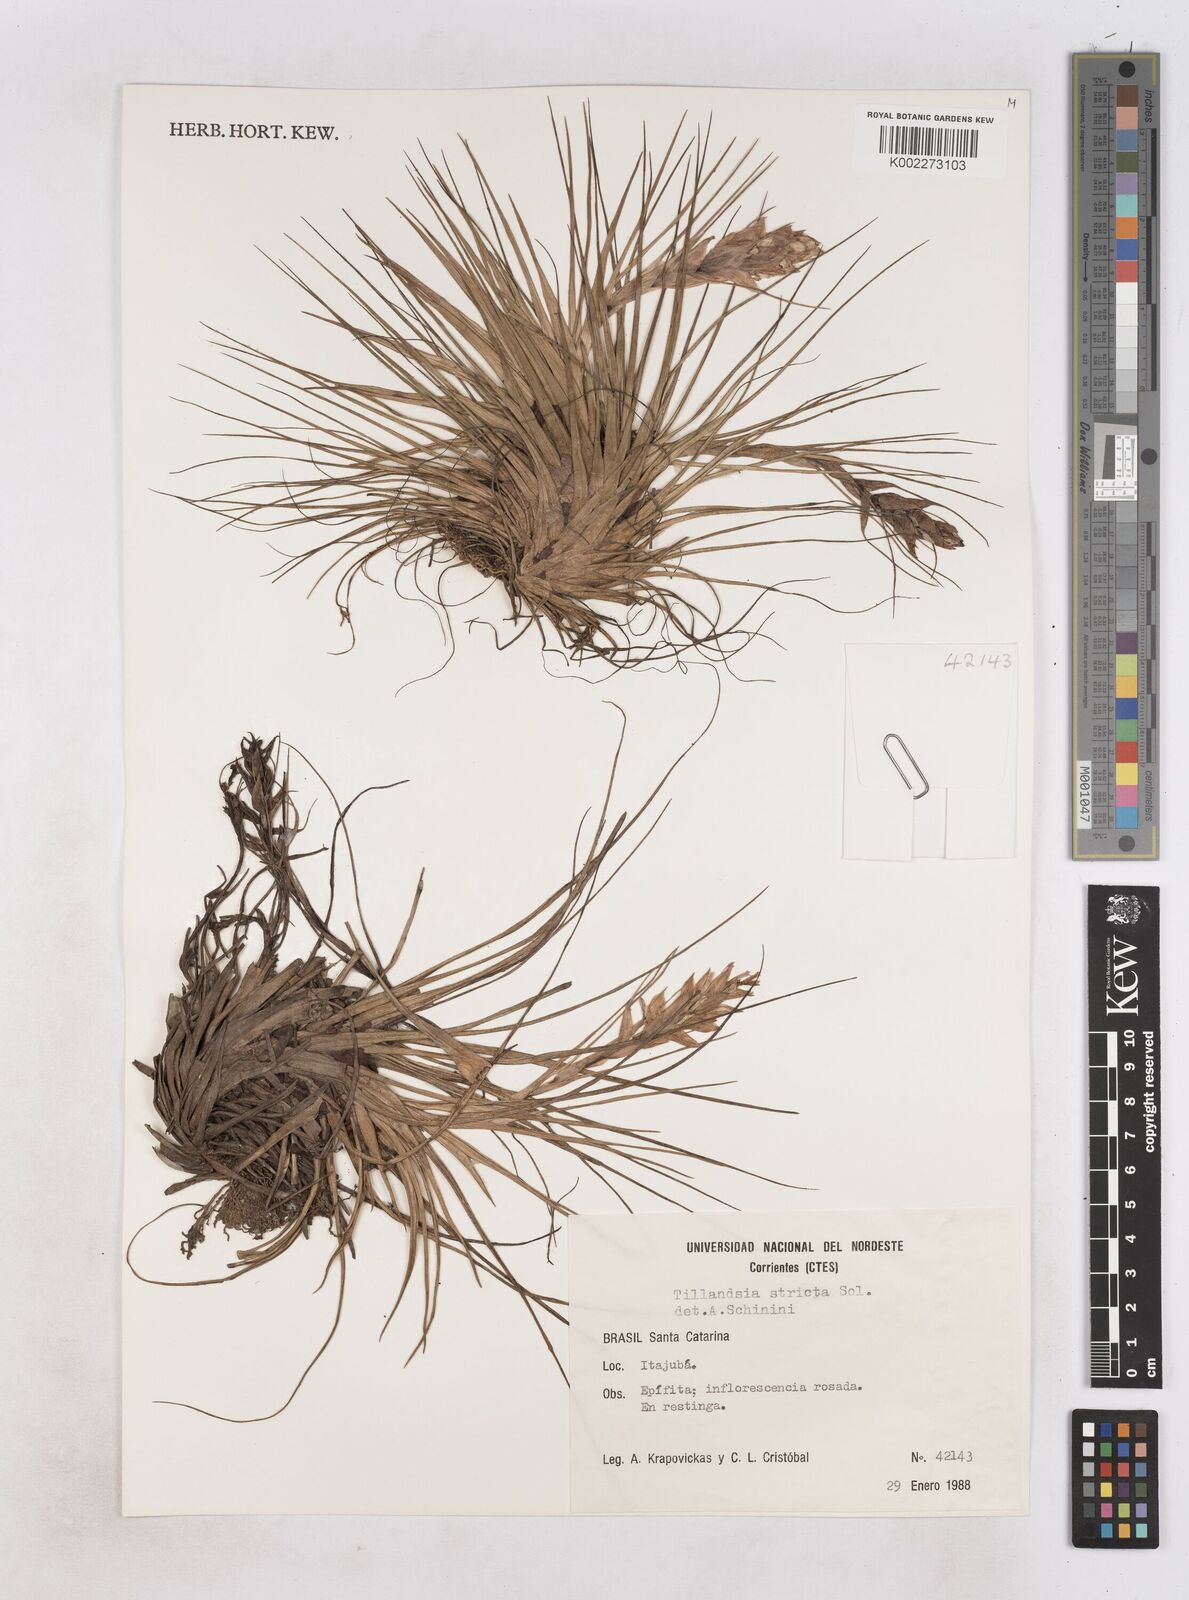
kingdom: Plantae
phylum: Tracheophyta
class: Liliopsida
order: Poales
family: Bromeliaceae
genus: Tillandsia
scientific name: Tillandsia stricta
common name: Airplant
